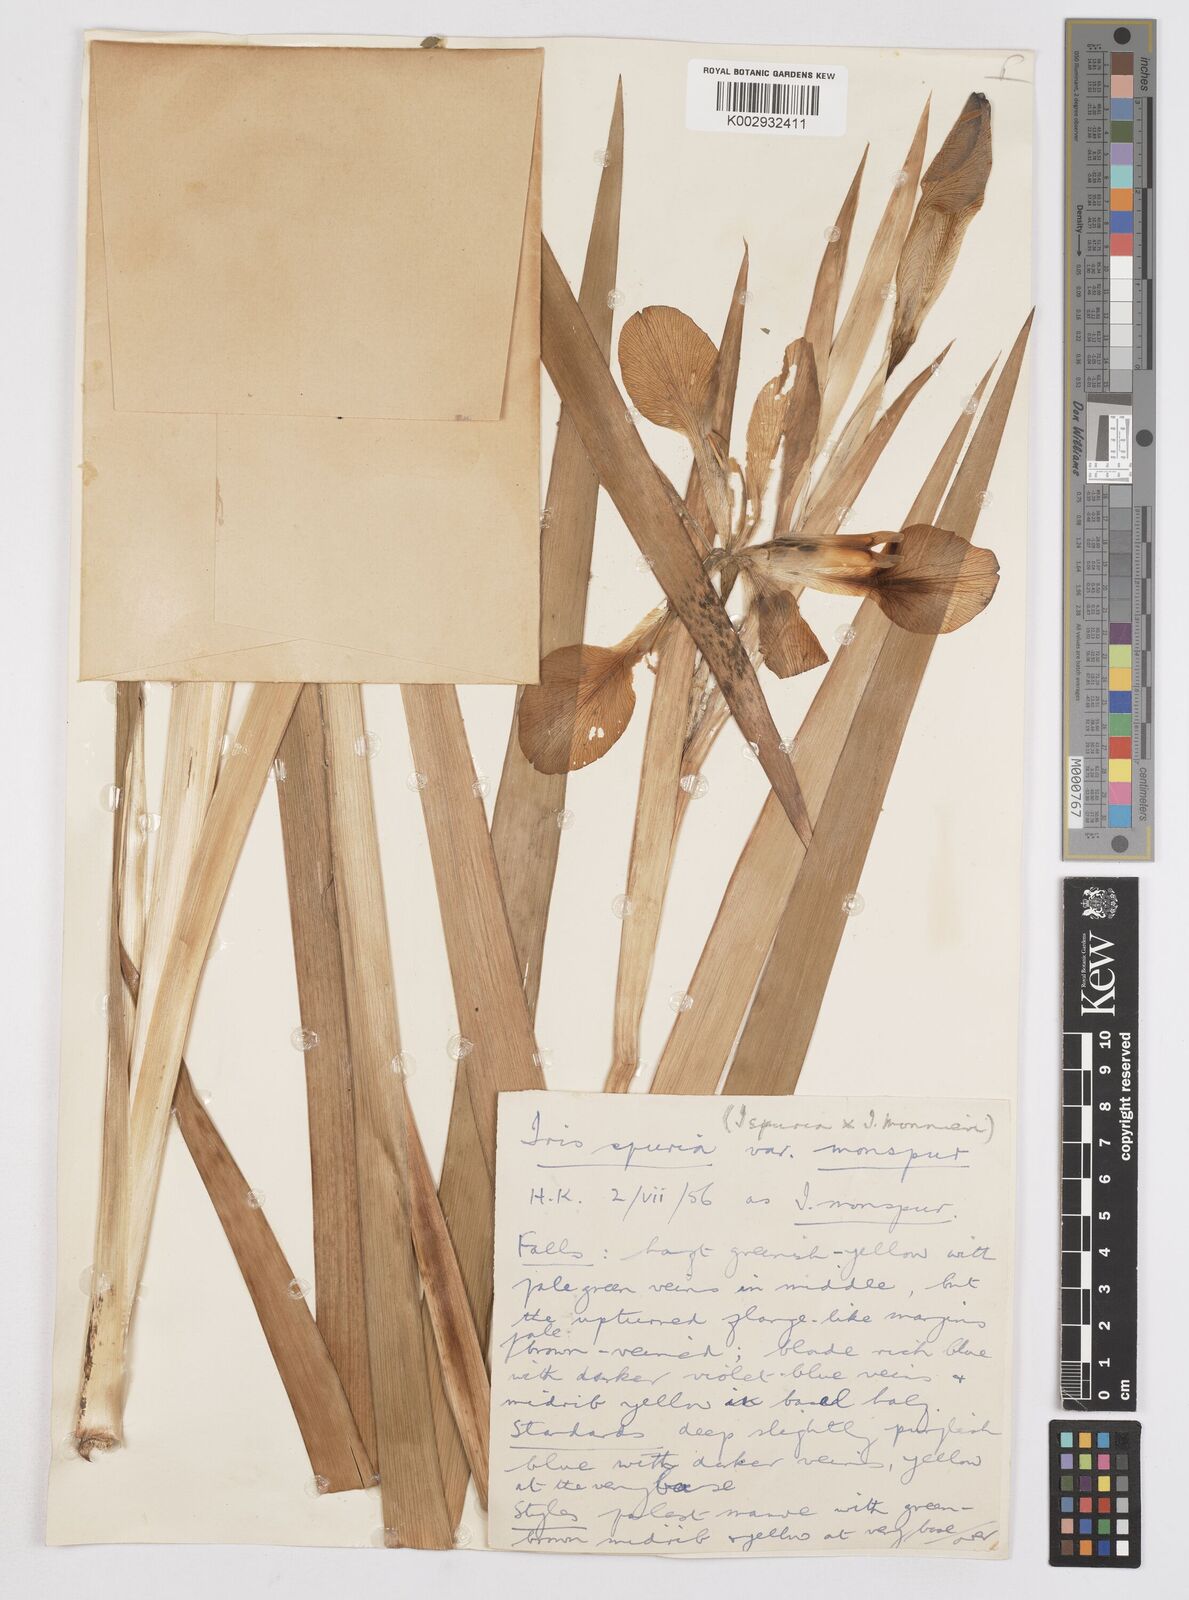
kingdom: Plantae
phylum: Tracheophyta
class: Liliopsida
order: Asparagales
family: Iridaceae
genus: Iris
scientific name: Iris spuria
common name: Blue iris
